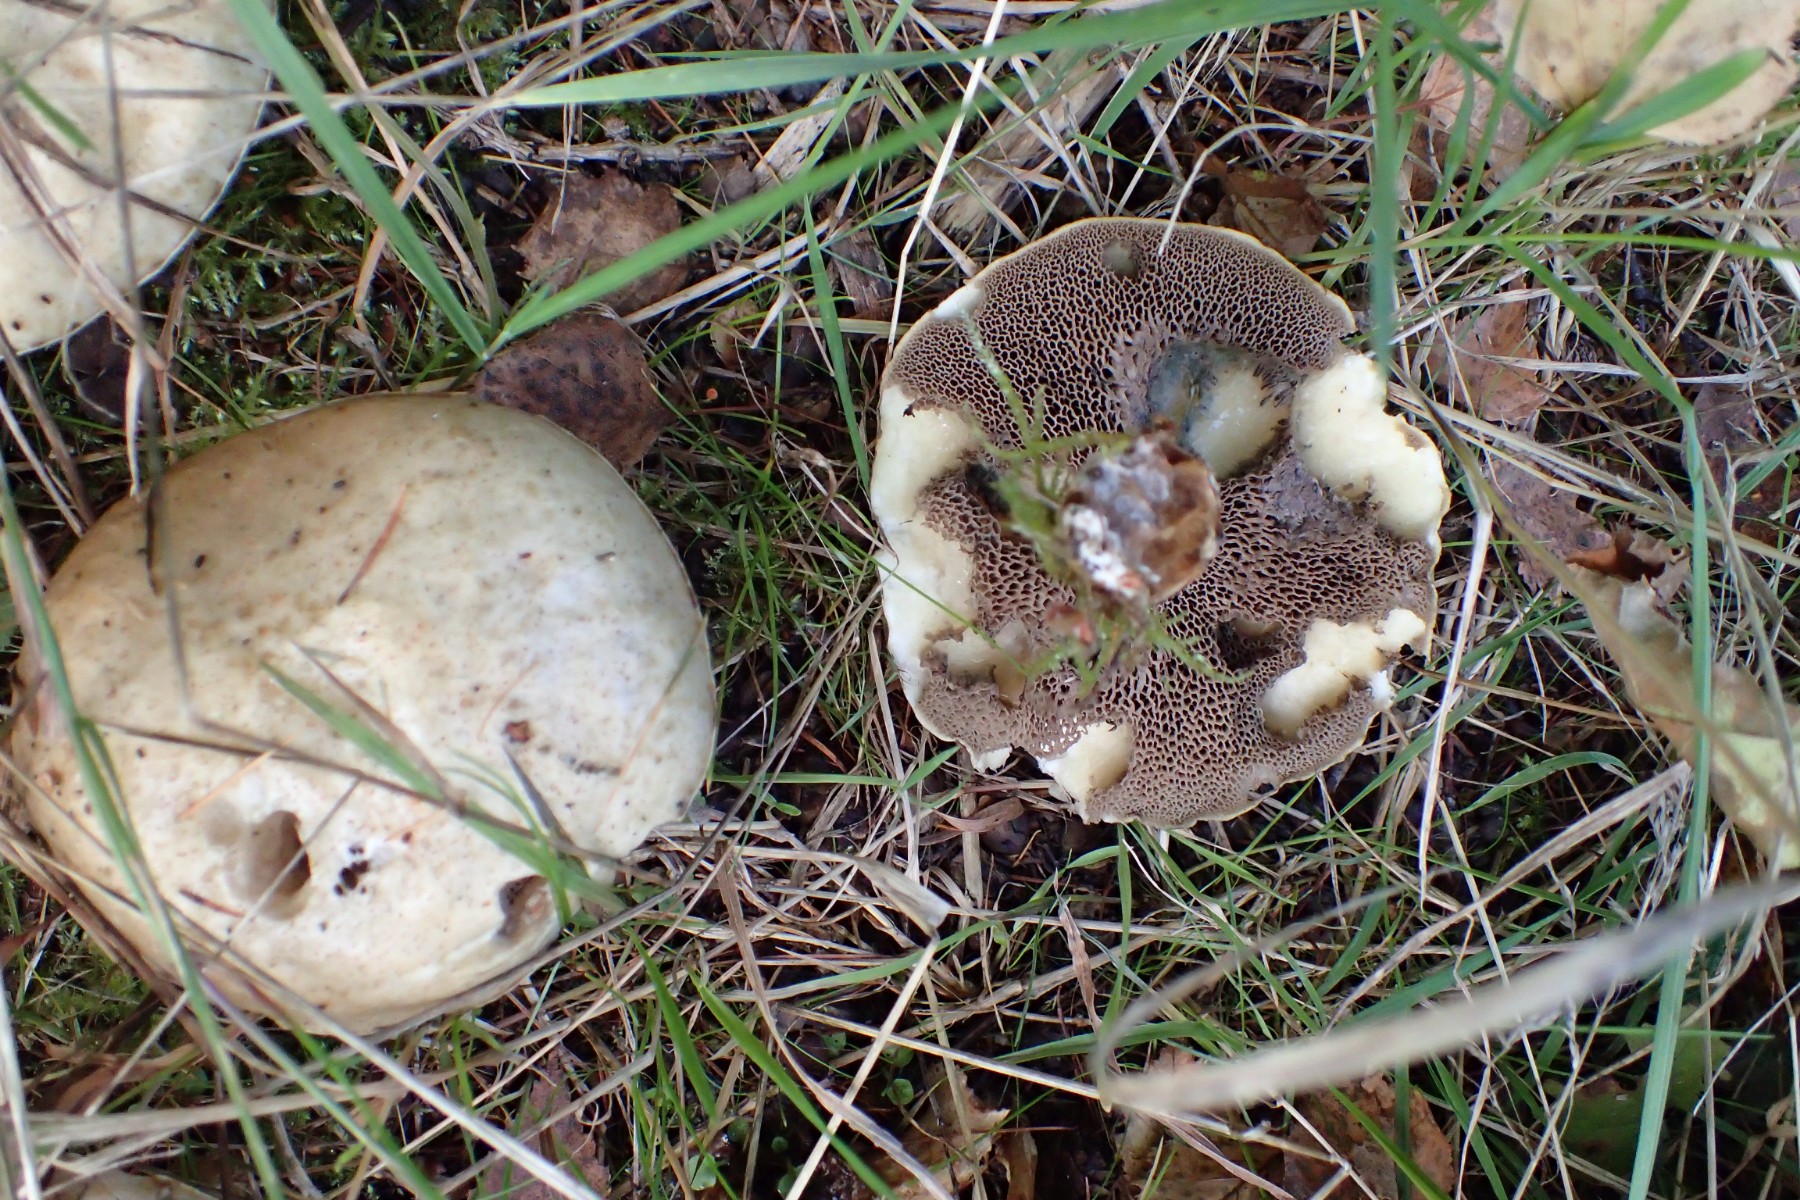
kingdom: Fungi
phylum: Basidiomycota
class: Agaricomycetes
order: Boletales
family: Suillaceae
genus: Suillus
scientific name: Suillus viscidus
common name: olivengrå slimrørhat
